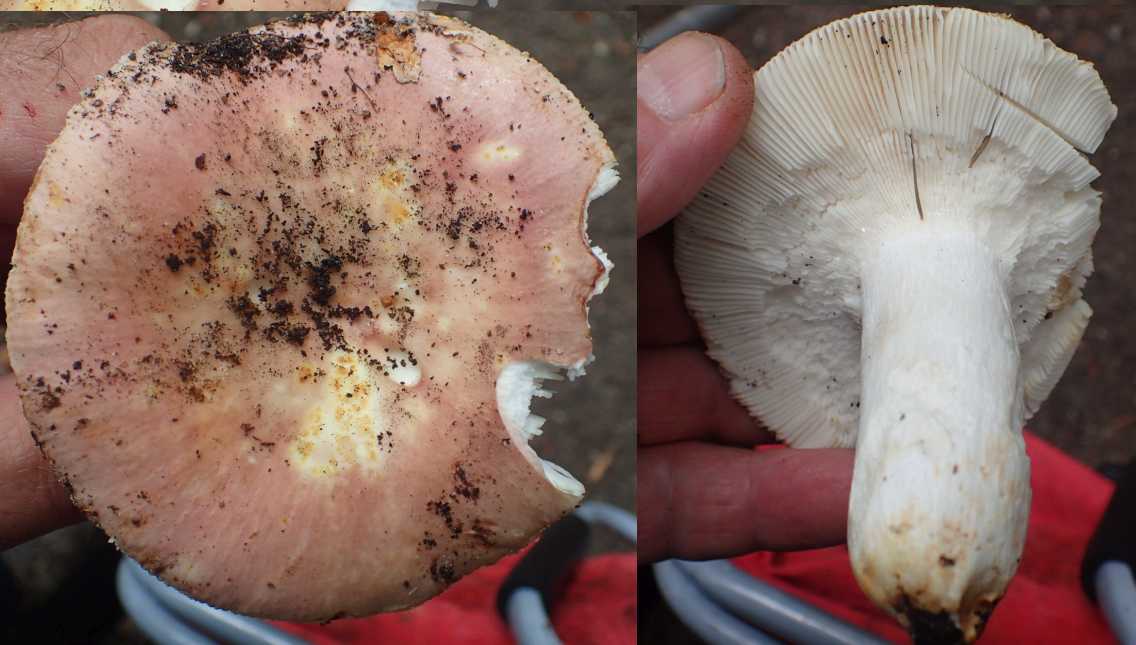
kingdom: Fungi
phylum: Basidiomycota
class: Agaricomycetes
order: Russulales
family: Russulaceae
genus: Russula
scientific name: Russula olivacea
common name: stor skørhat
